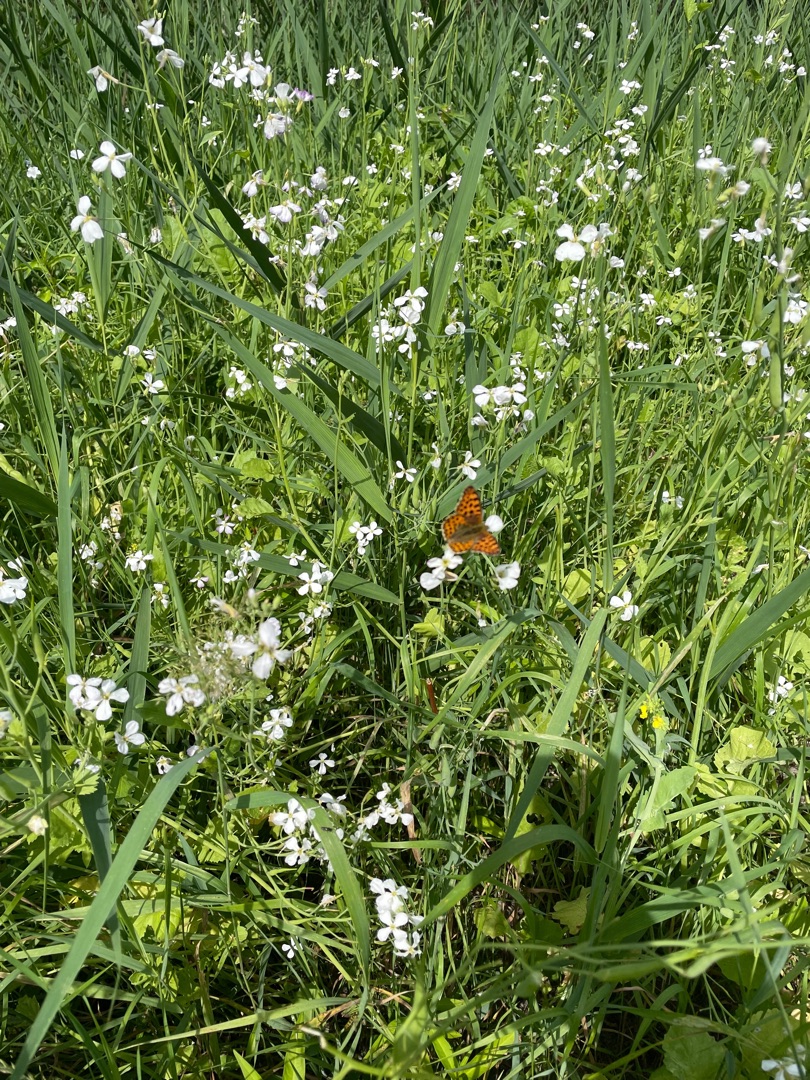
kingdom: Animalia
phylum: Arthropoda
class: Insecta
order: Lepidoptera
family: Nymphalidae
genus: Issoria
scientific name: Issoria lathonia
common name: Storplettet perlemorsommerfugl
